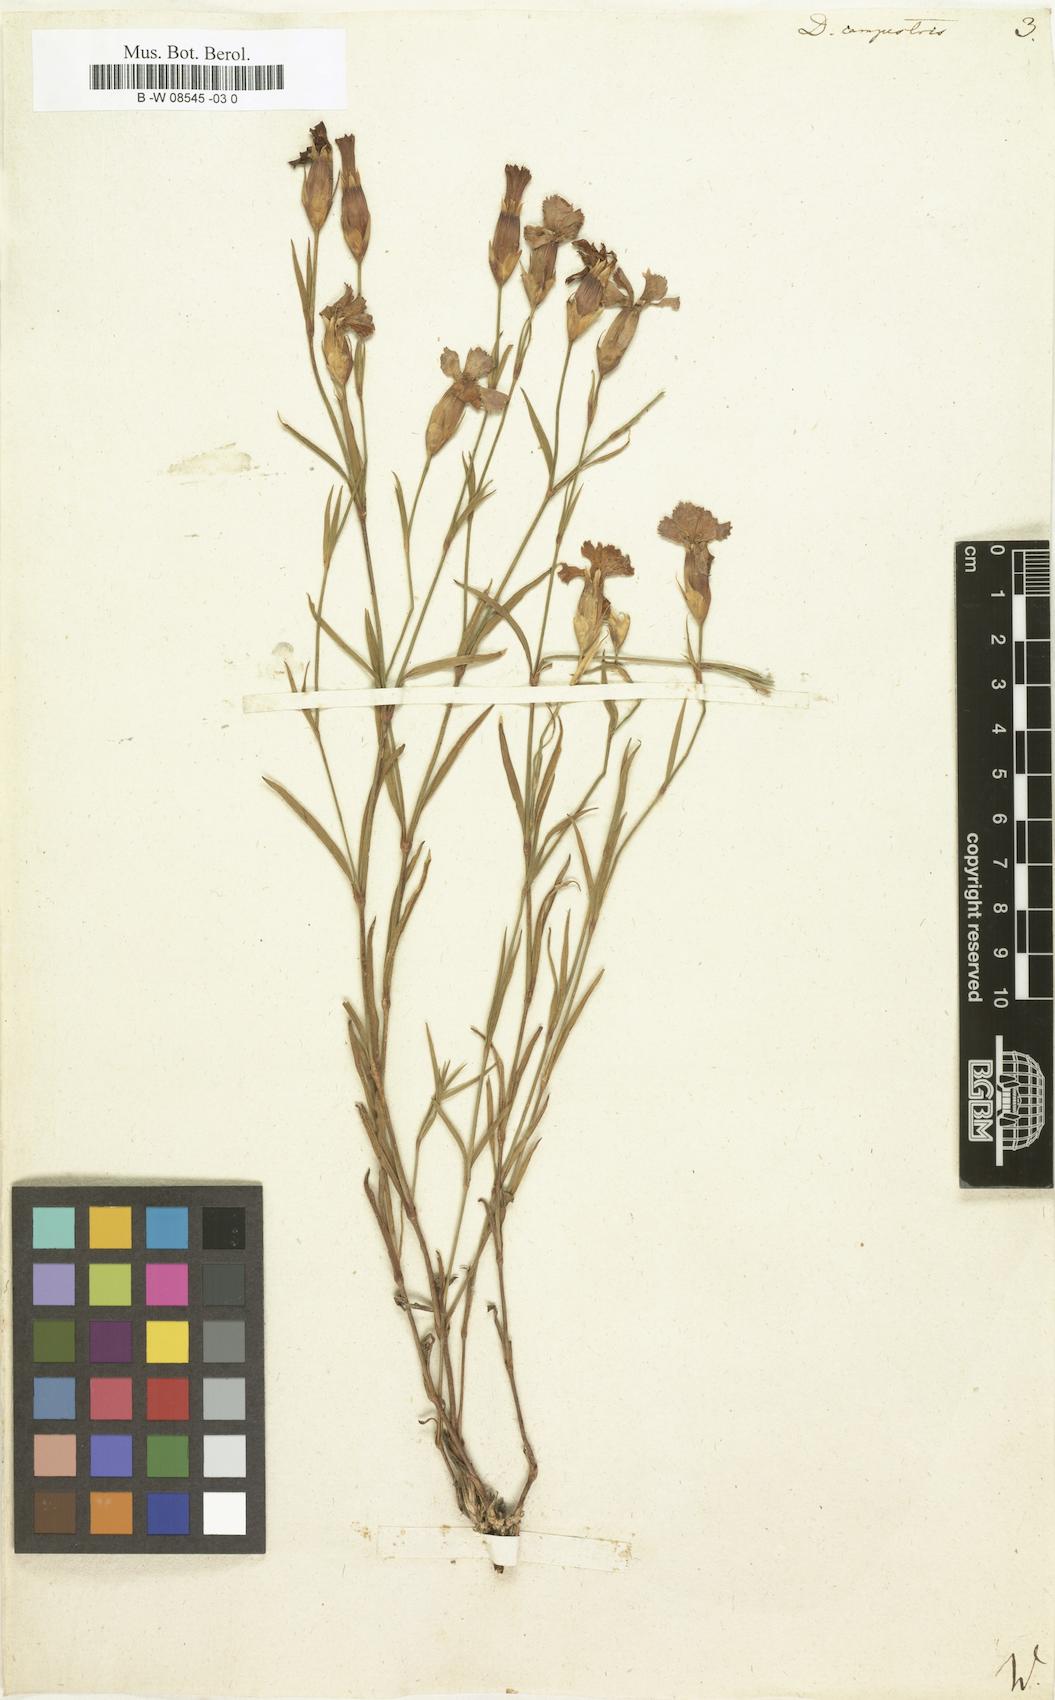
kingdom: Plantae
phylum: Tracheophyta
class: Magnoliopsida
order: Caryophyllales
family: Caryophyllaceae
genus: Dianthus
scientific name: Dianthus campestris
